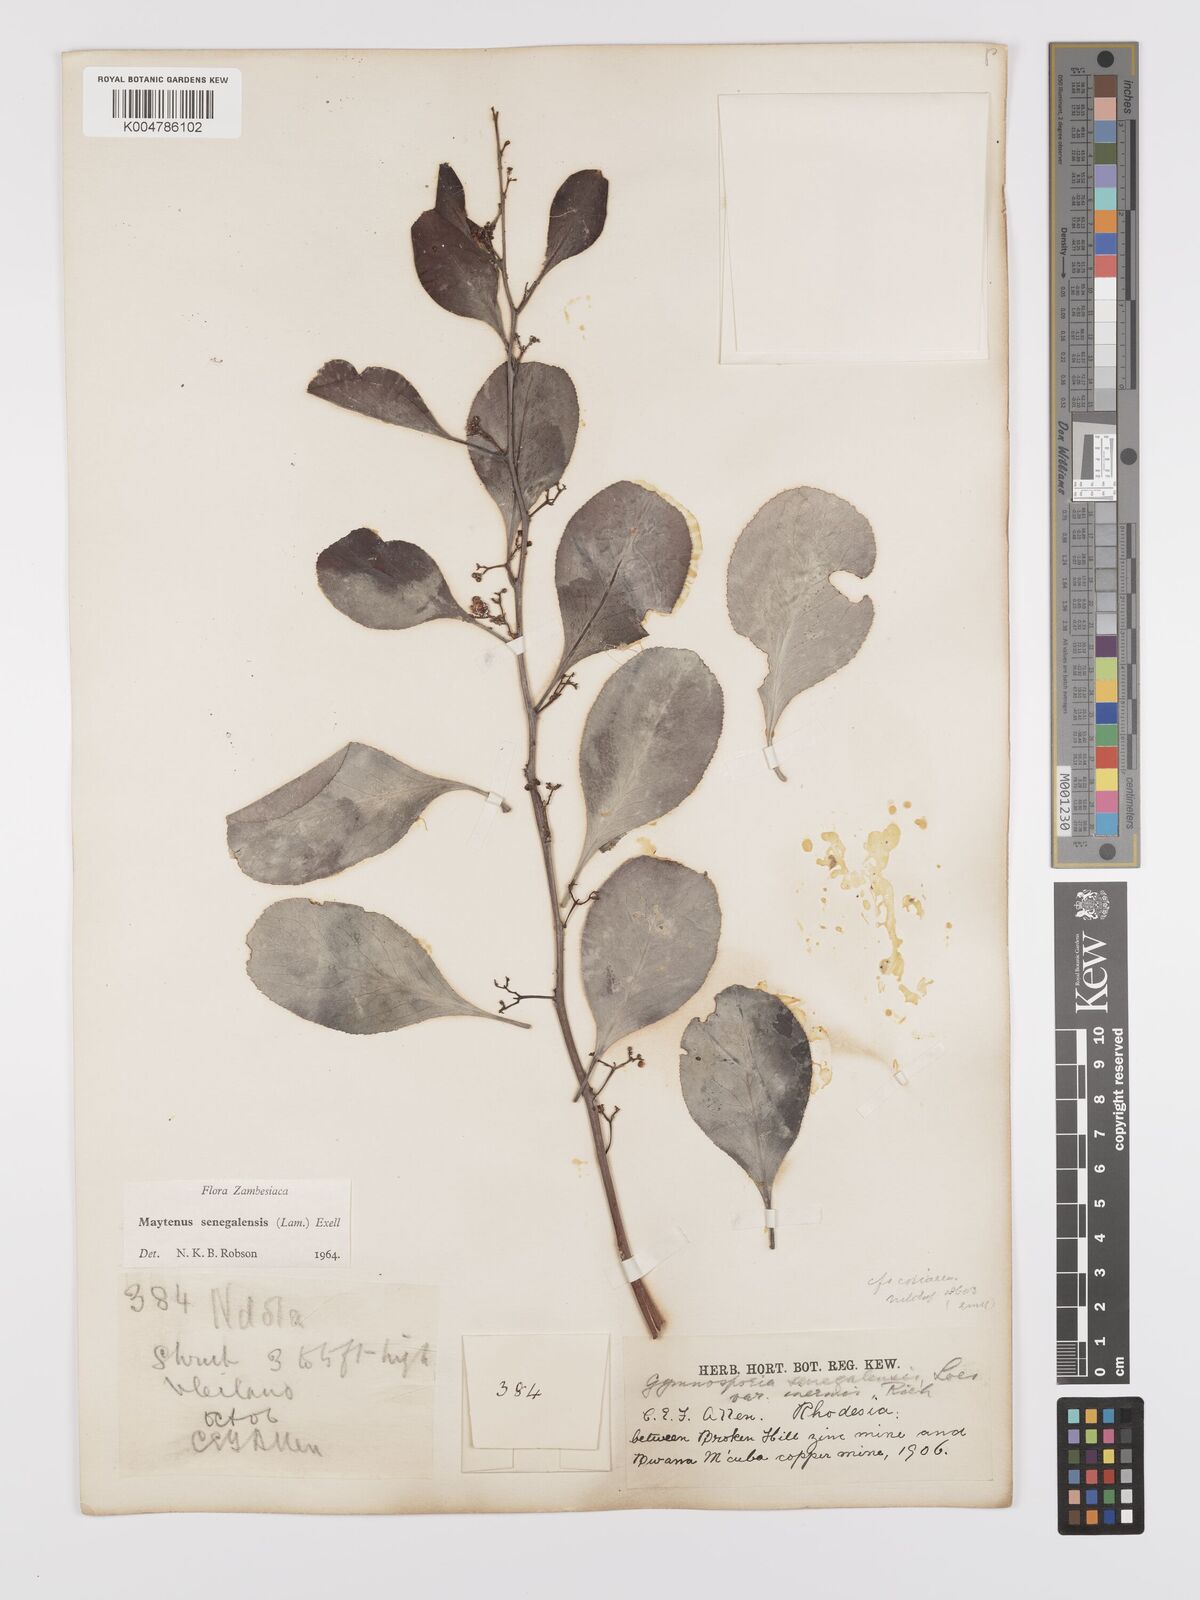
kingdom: Plantae
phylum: Tracheophyta
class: Magnoliopsida
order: Celastrales
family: Celastraceae
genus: Gymnosporia
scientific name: Gymnosporia senegalensis
